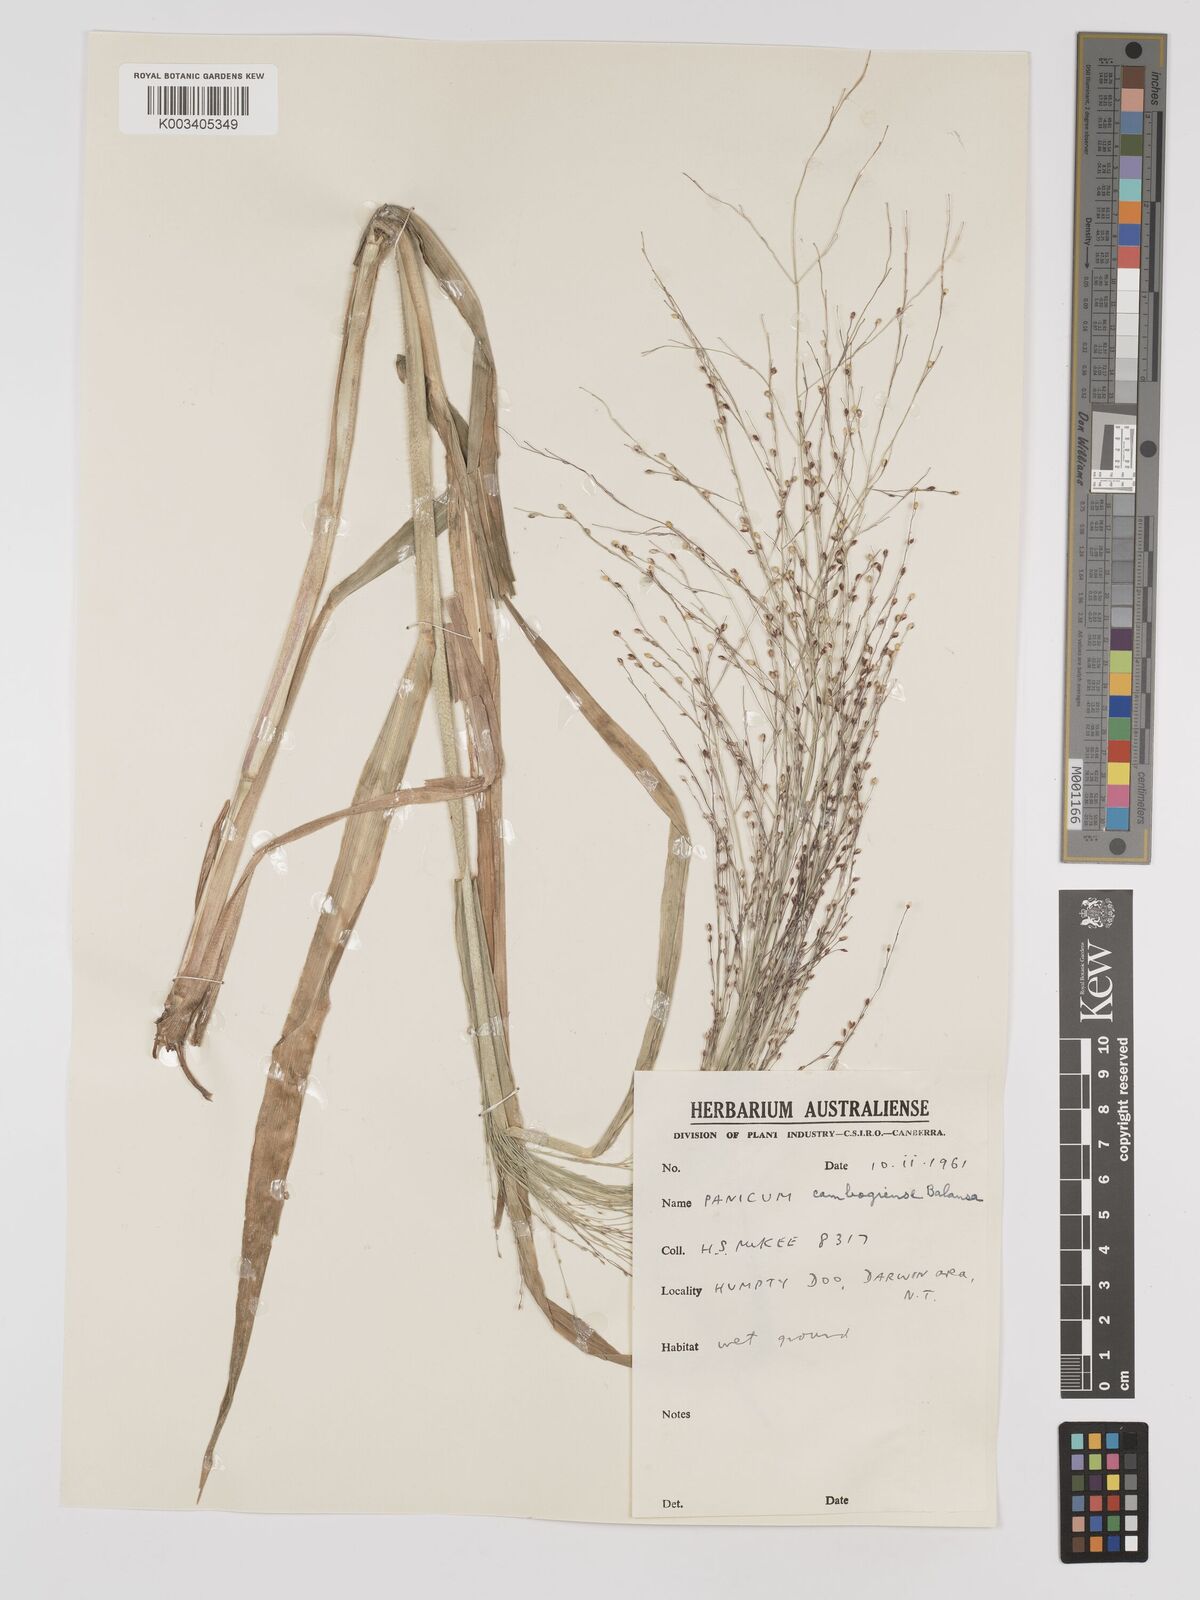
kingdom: Plantae
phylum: Tracheophyta
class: Liliopsida
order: Poales
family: Poaceae
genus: Panicum
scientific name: Panicum luzonense
